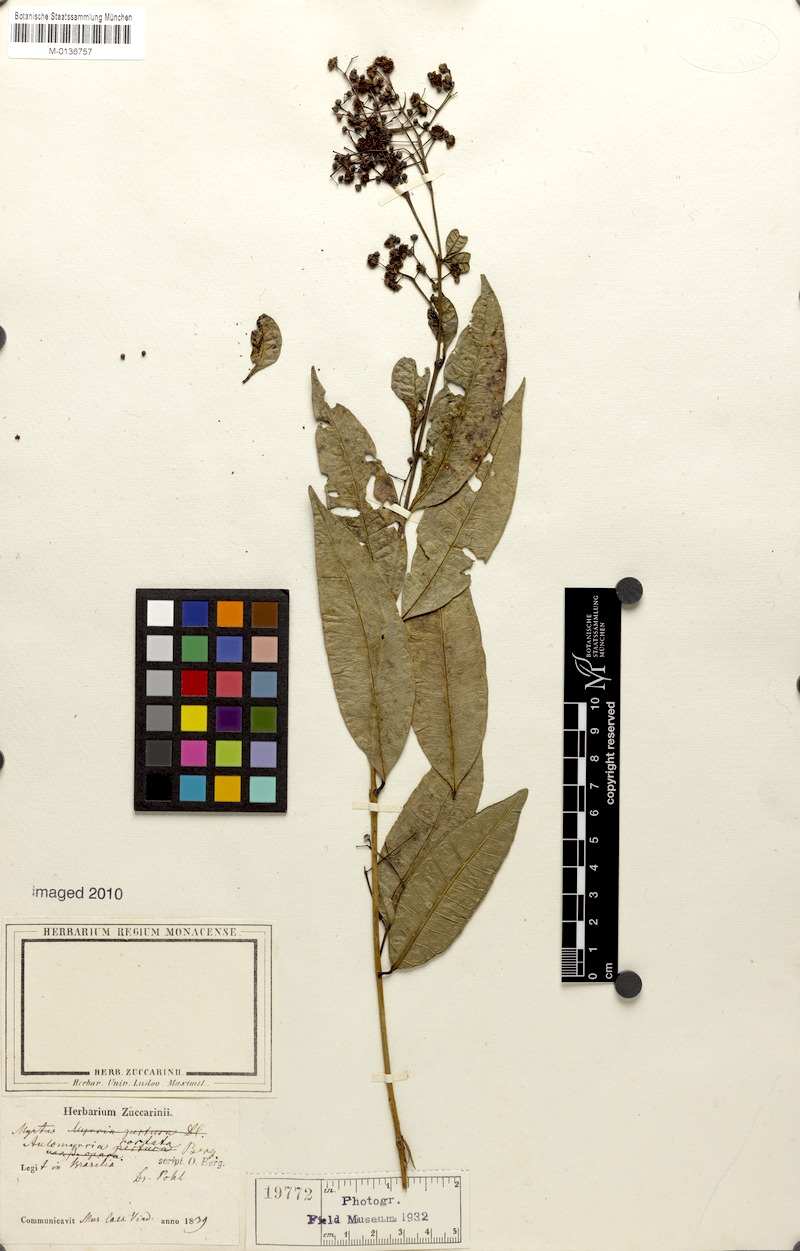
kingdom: Plantae
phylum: Tracheophyta
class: Magnoliopsida
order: Myrtales
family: Myrtaceae
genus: Myrcia
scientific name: Myrcia splendens
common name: Surinam cherry
